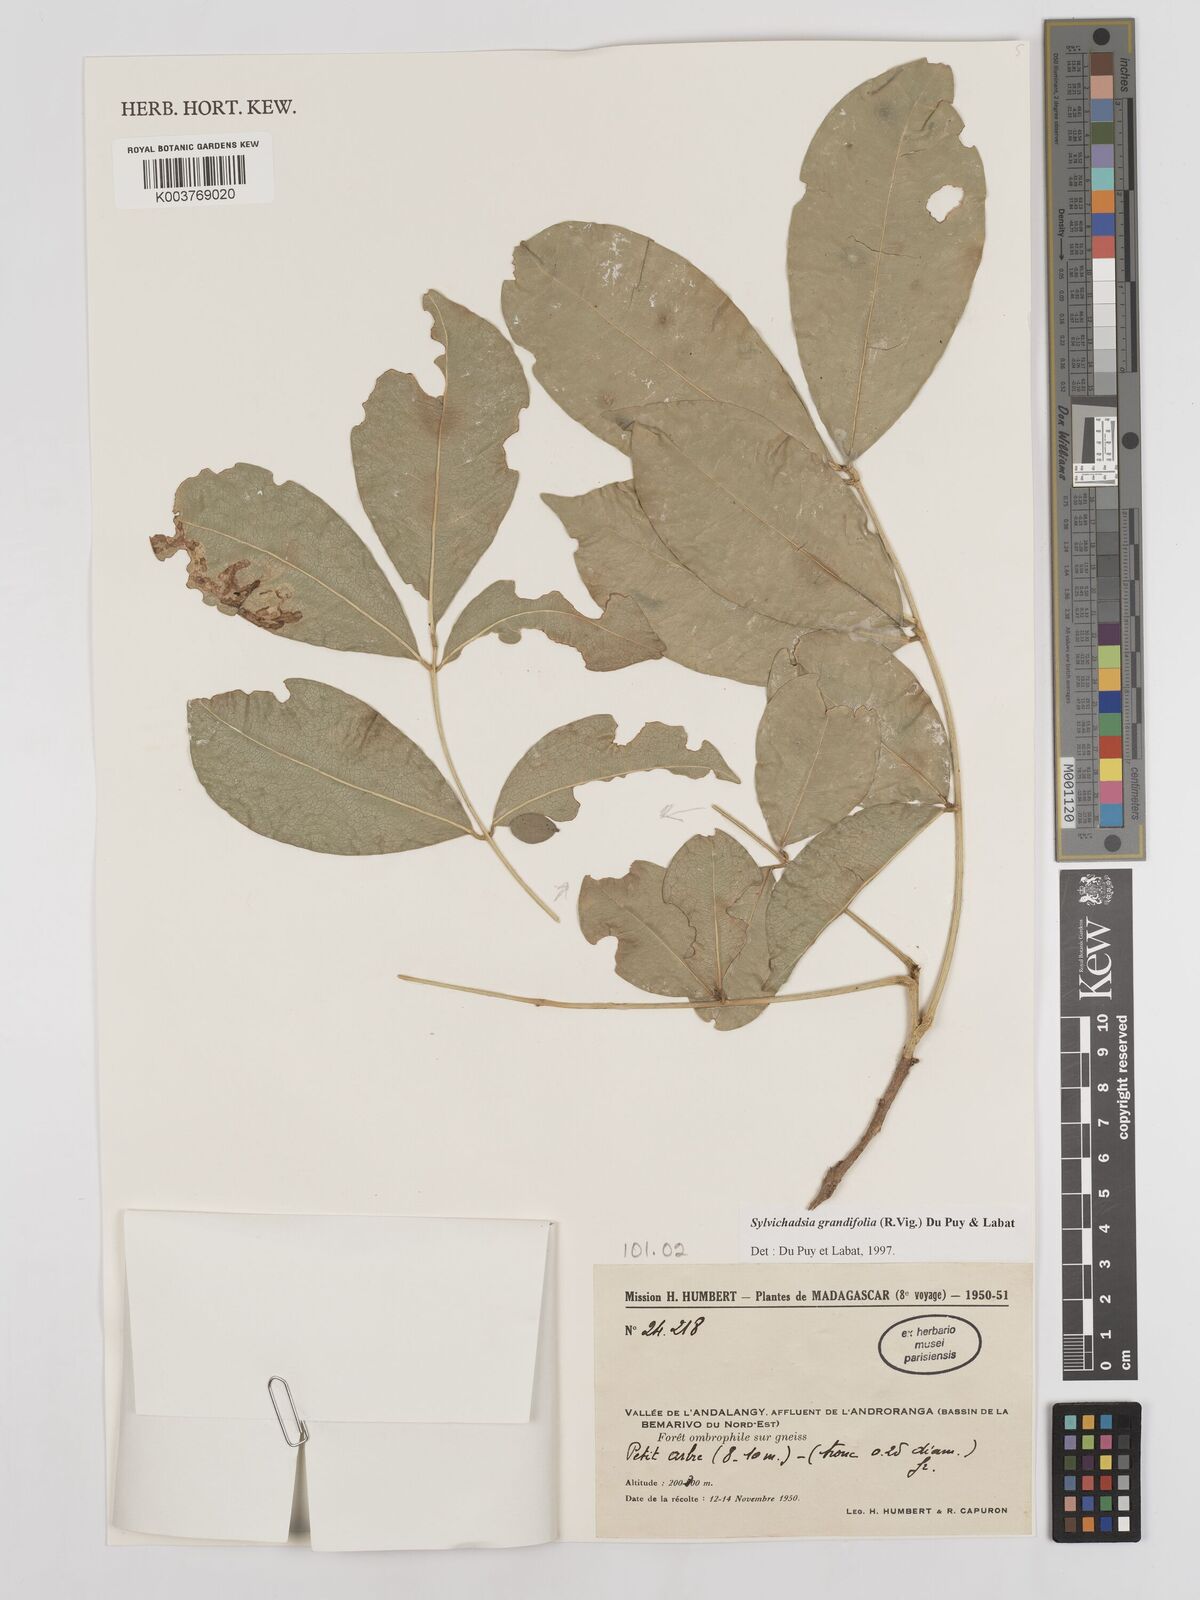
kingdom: Plantae
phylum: Tracheophyta
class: Magnoliopsida
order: Fabales
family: Fabaceae
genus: Sylvichadsia
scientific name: Sylvichadsia grandifolia
